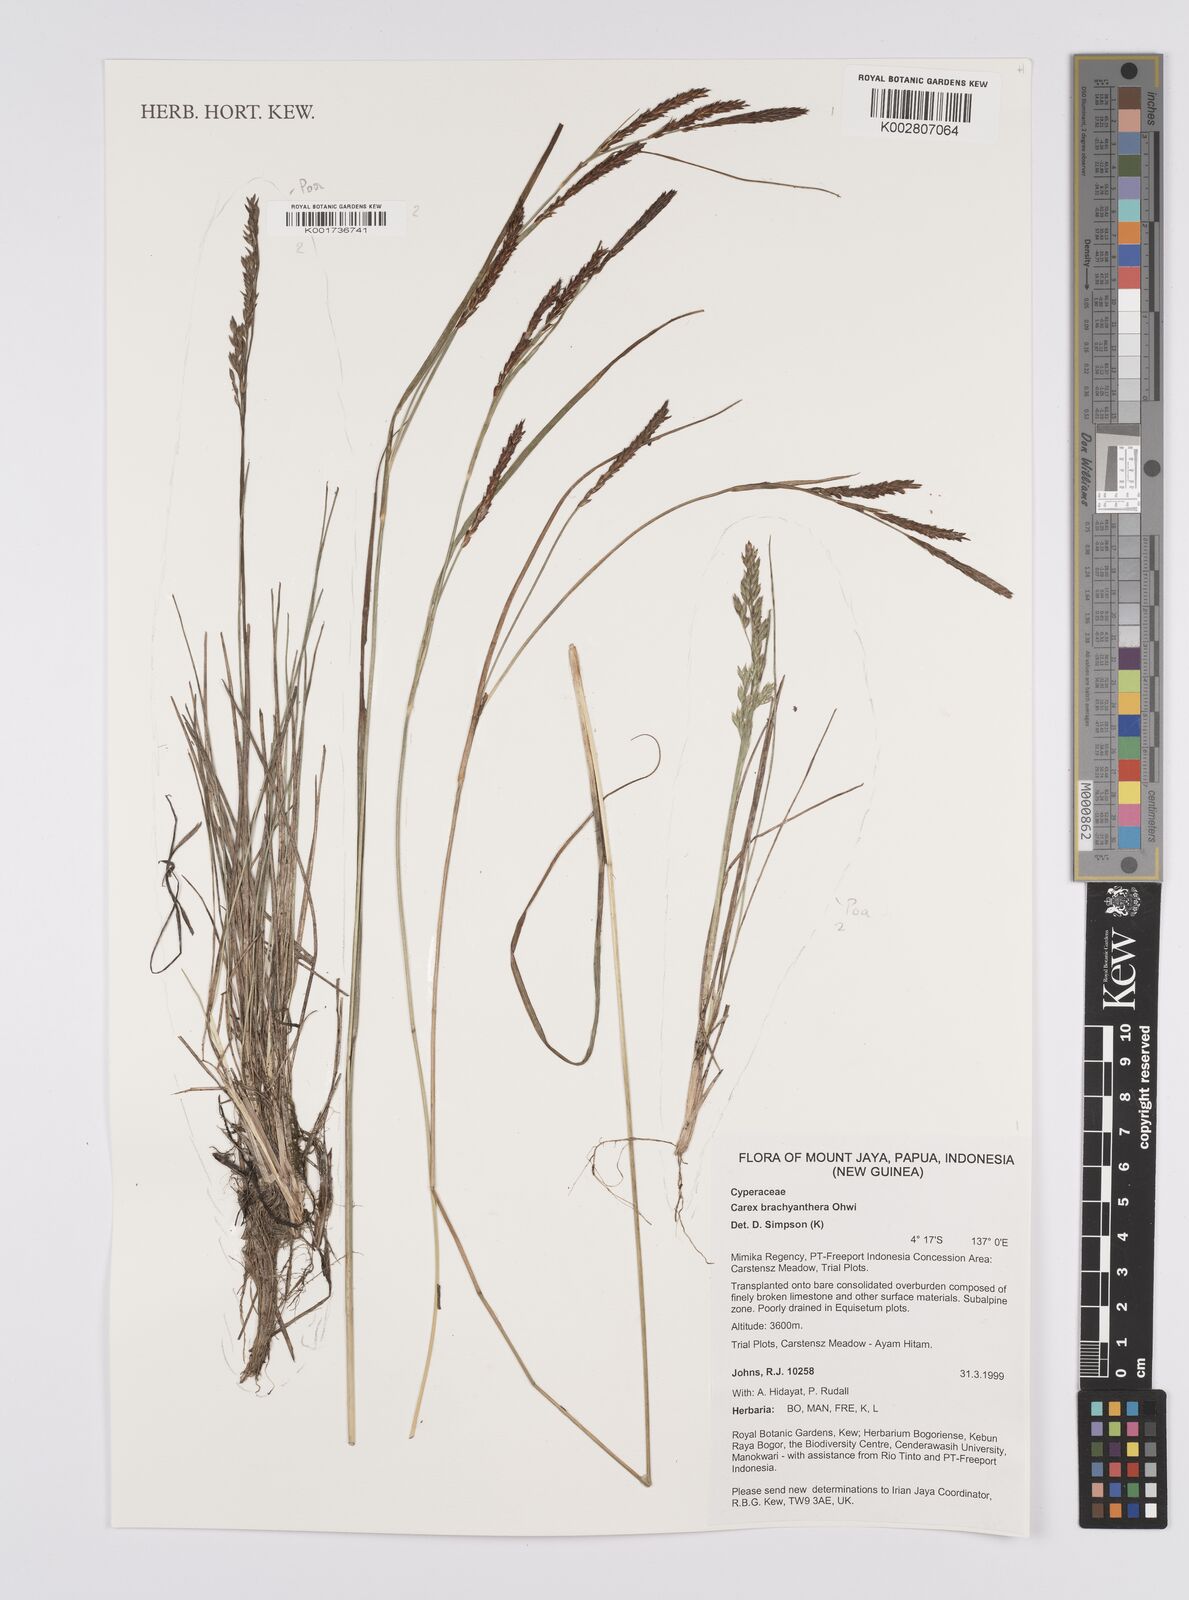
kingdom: Plantae
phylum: Tracheophyta
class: Liliopsida
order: Poales
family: Cyperaceae
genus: Carex
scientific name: Carex brachyanthera
